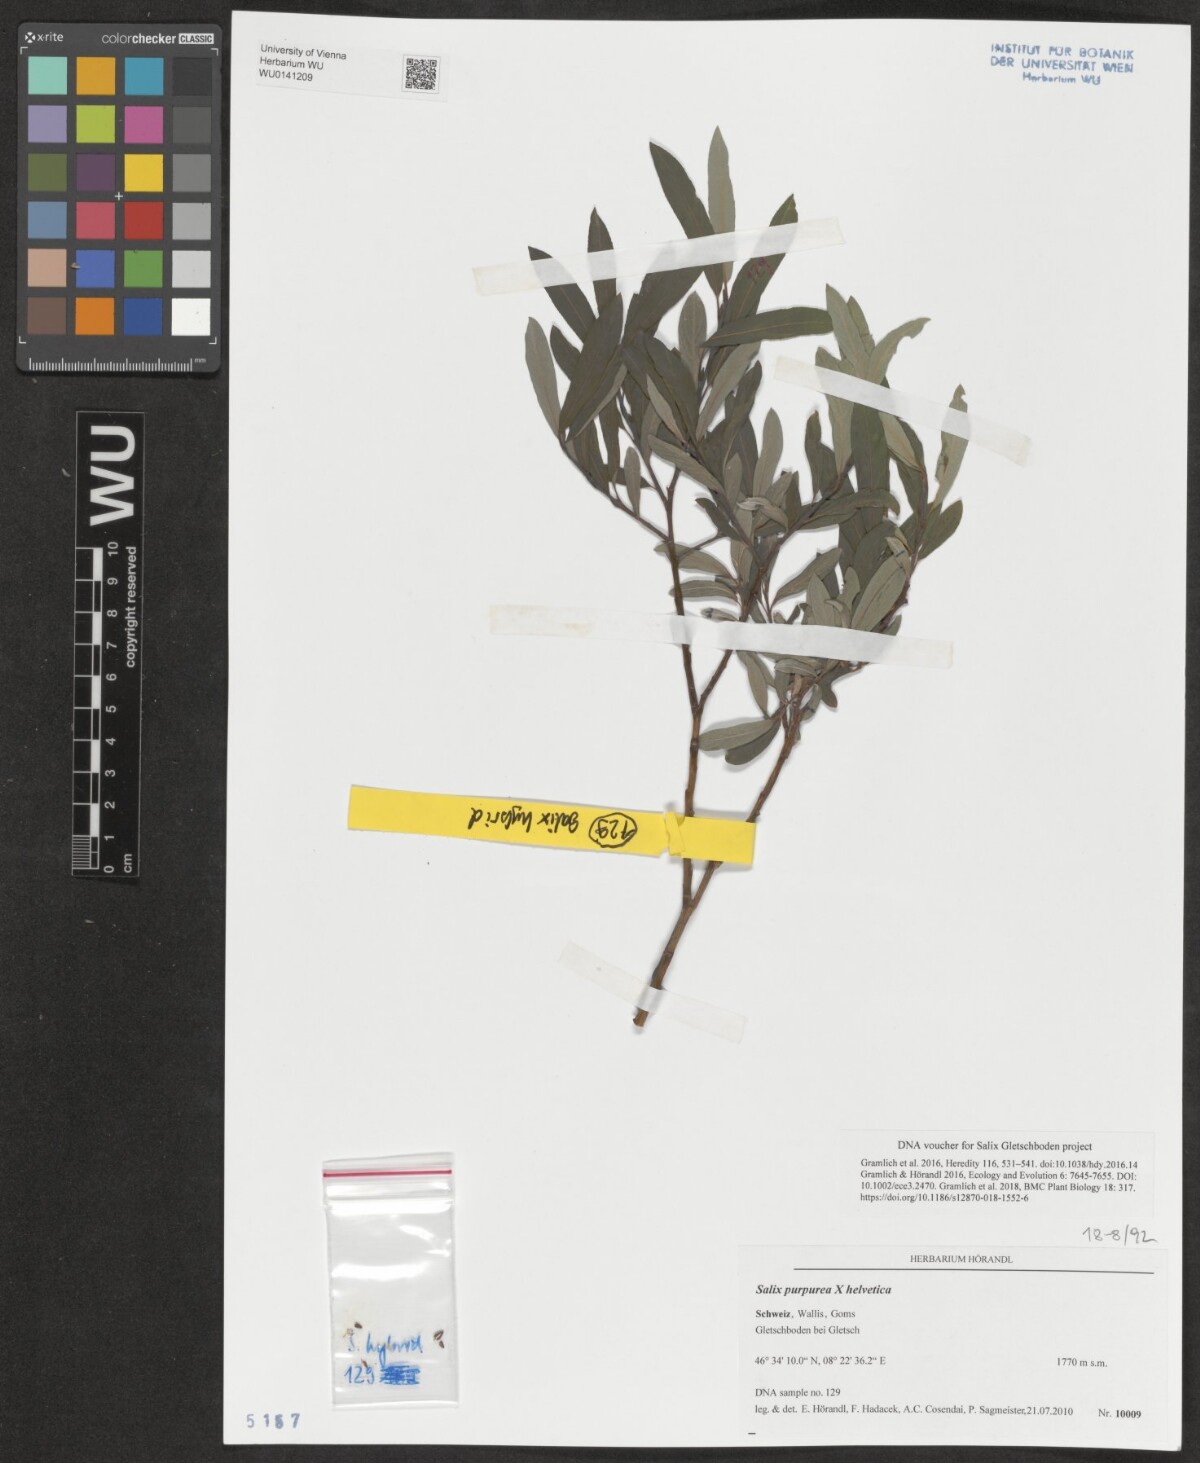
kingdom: Plantae
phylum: Tracheophyta
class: Magnoliopsida
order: Malpighiales
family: Salicaceae
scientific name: Salicaceae
